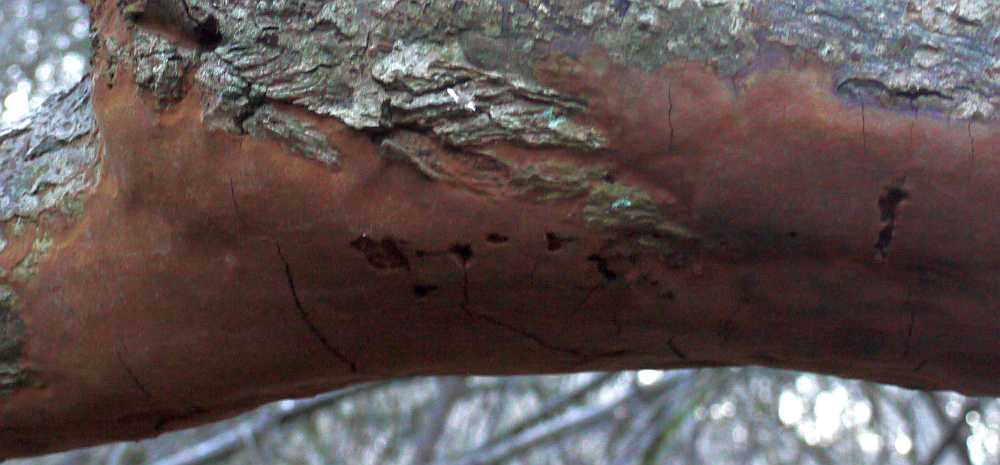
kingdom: Fungi
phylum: Basidiomycota
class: Agaricomycetes
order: Hymenochaetales
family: Hymenochaetaceae
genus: Fomitiporia
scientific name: Fomitiporia punctata
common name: pude-ildporesvamp
